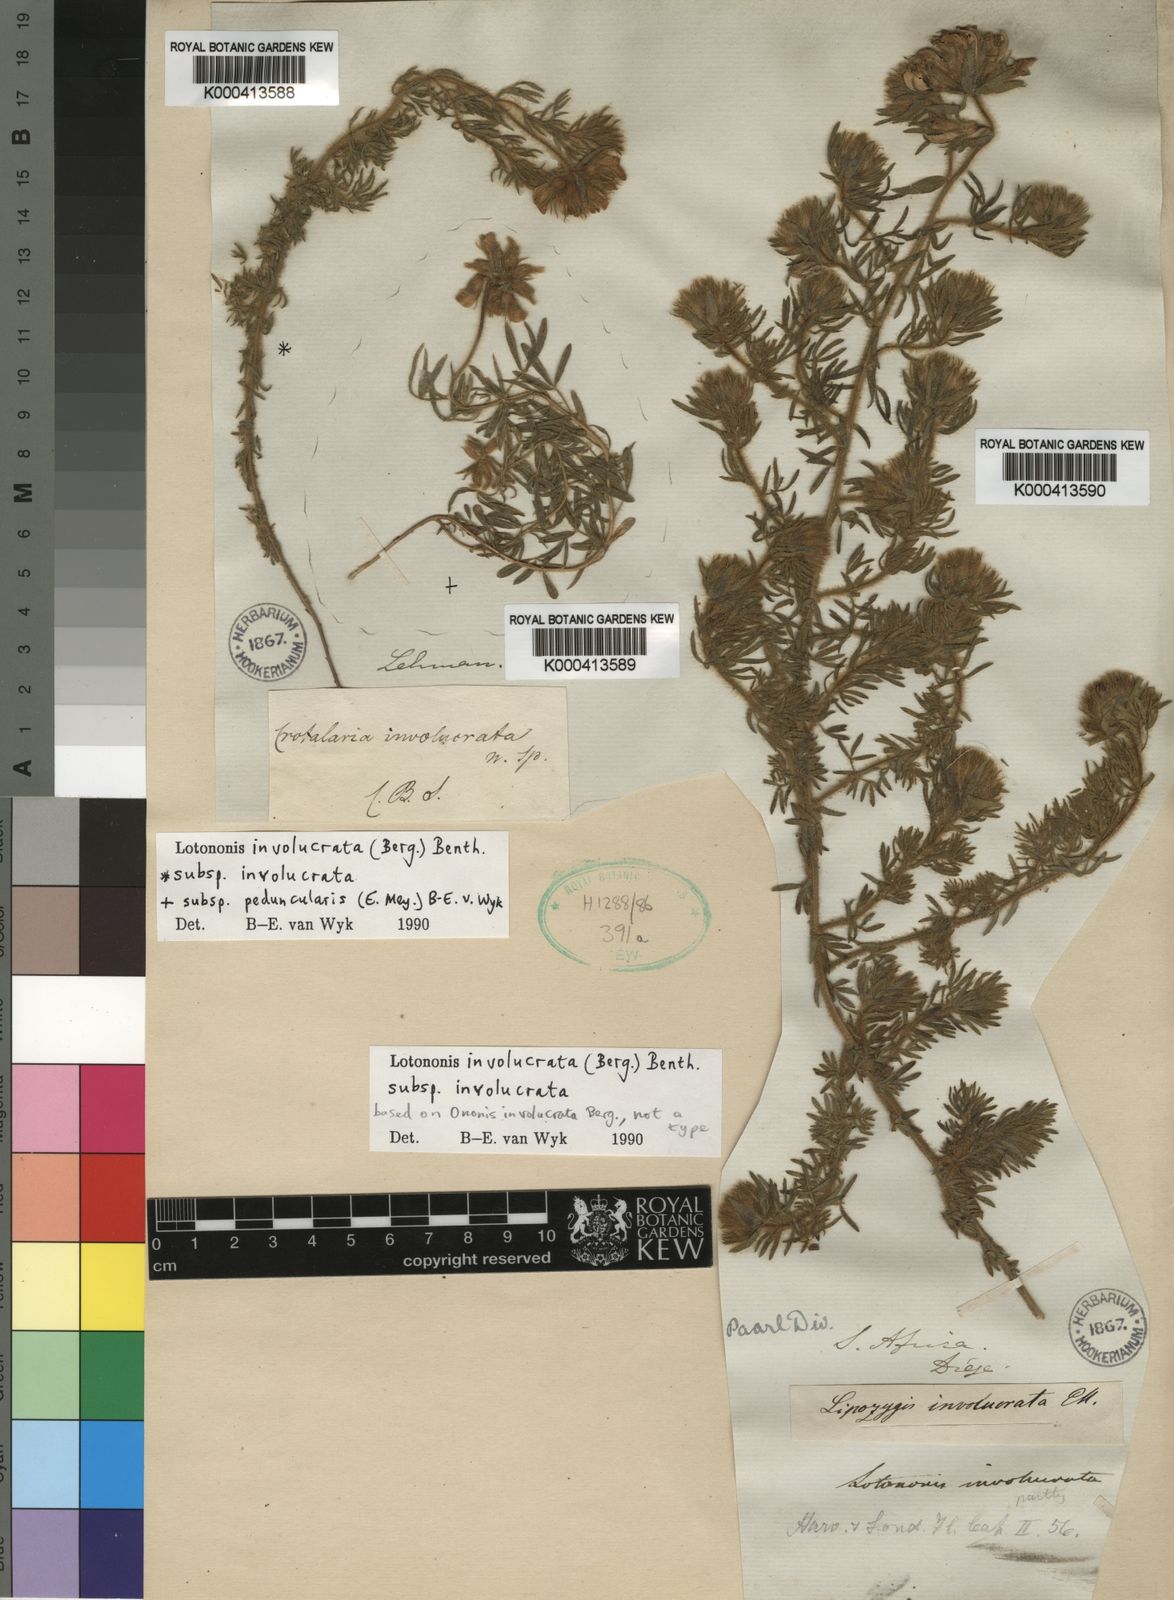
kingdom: Plantae
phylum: Tracheophyta
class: Magnoliopsida
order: Fabales
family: Fabaceae
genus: Lotononis
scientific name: Lotononis involucrata
